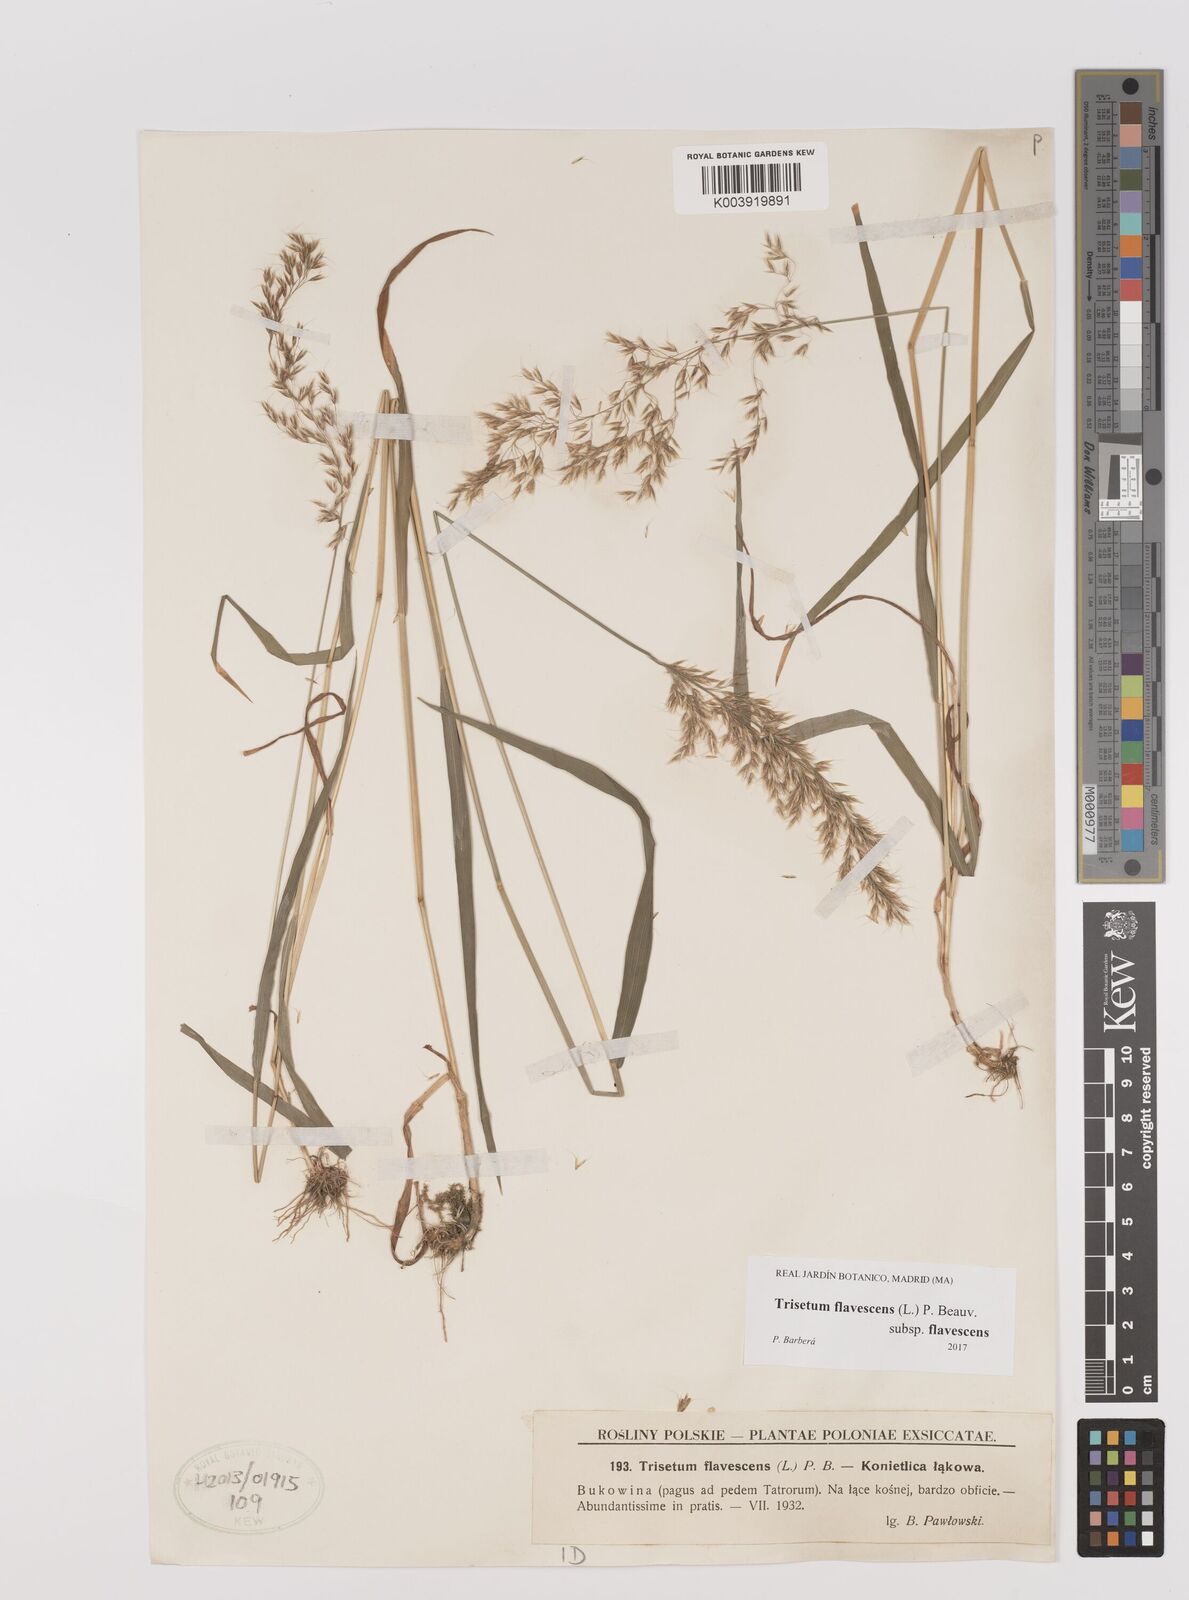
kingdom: Plantae
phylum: Tracheophyta
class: Liliopsida
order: Poales
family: Poaceae
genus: Trisetum
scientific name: Trisetum flavescens
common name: Yellow oat-grass
